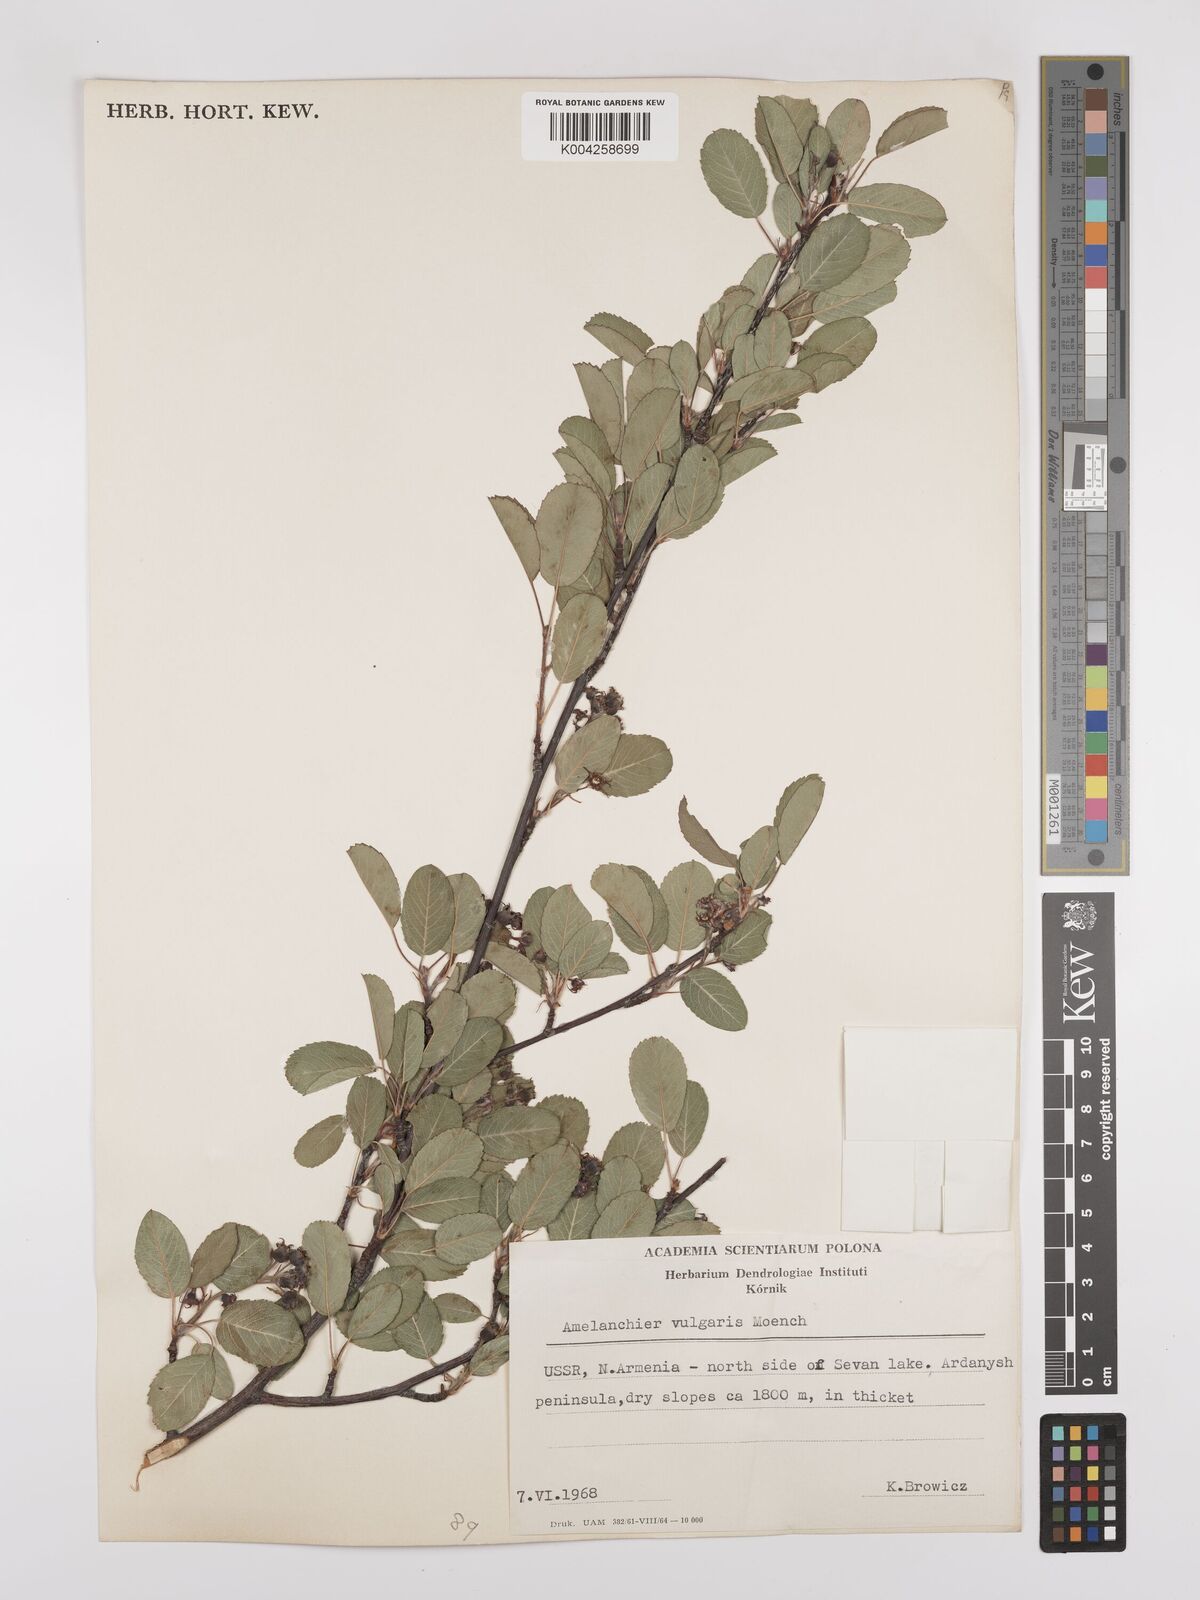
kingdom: Plantae
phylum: Tracheophyta
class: Magnoliopsida
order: Rosales
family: Rosaceae
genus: Amelanchier
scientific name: Amelanchier ovalis
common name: Serviceberry
